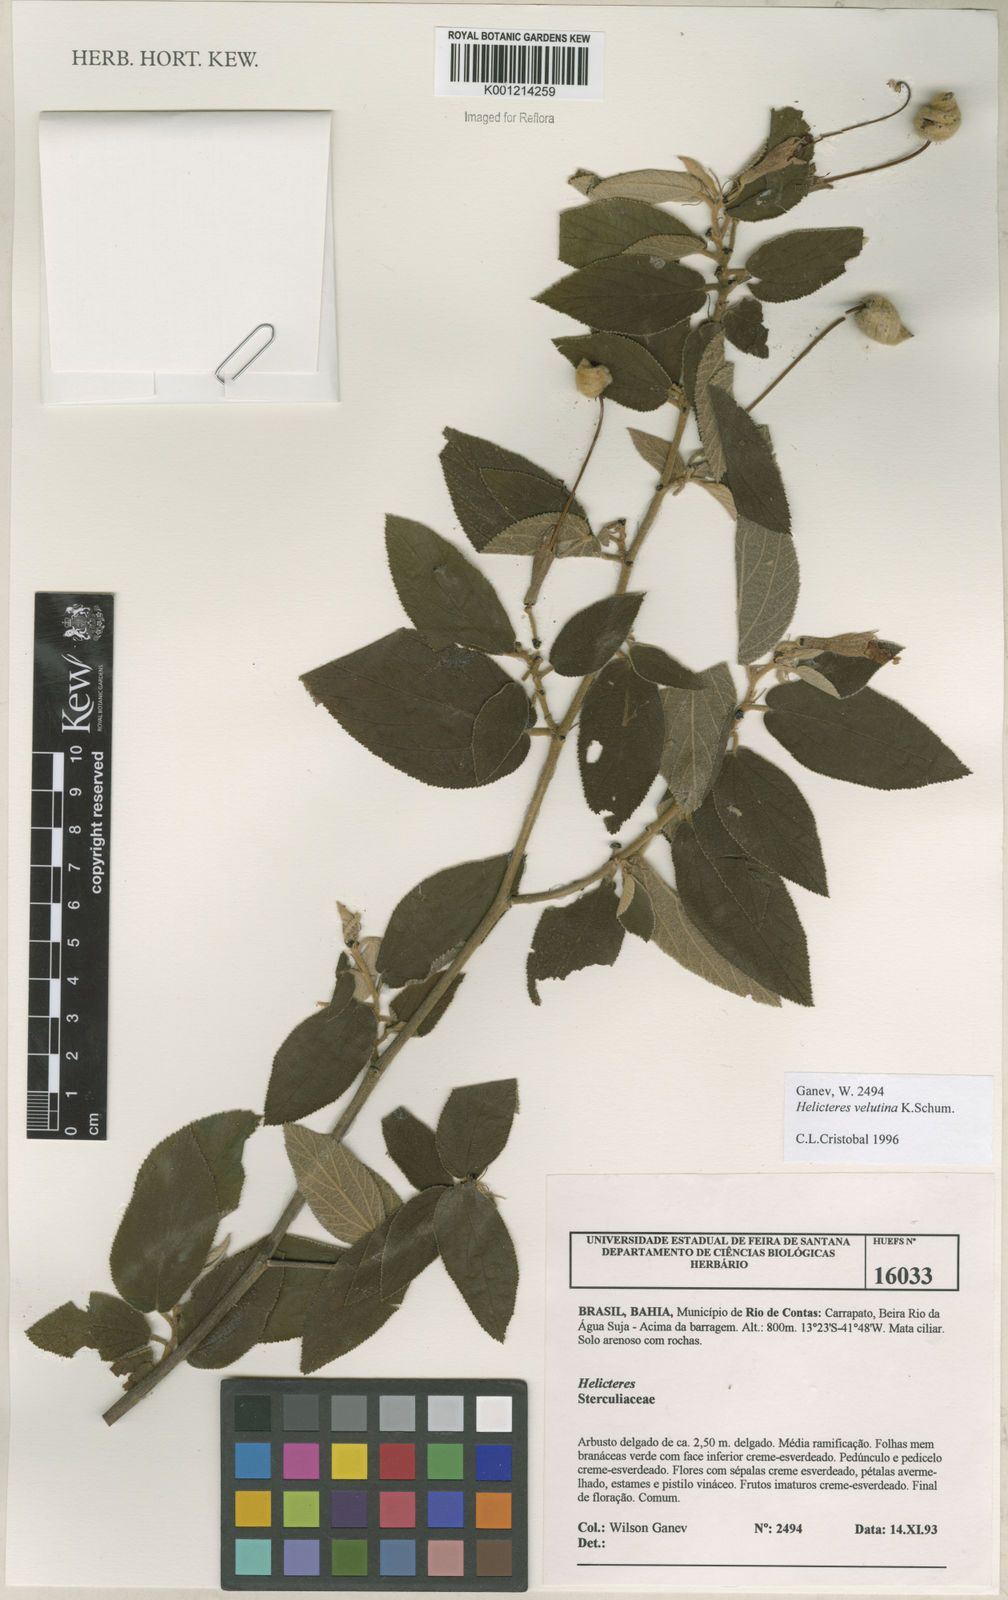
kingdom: Plantae
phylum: Tracheophyta
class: Magnoliopsida
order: Malvales
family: Malvaceae
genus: Helicteres
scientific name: Helicteres velutina
